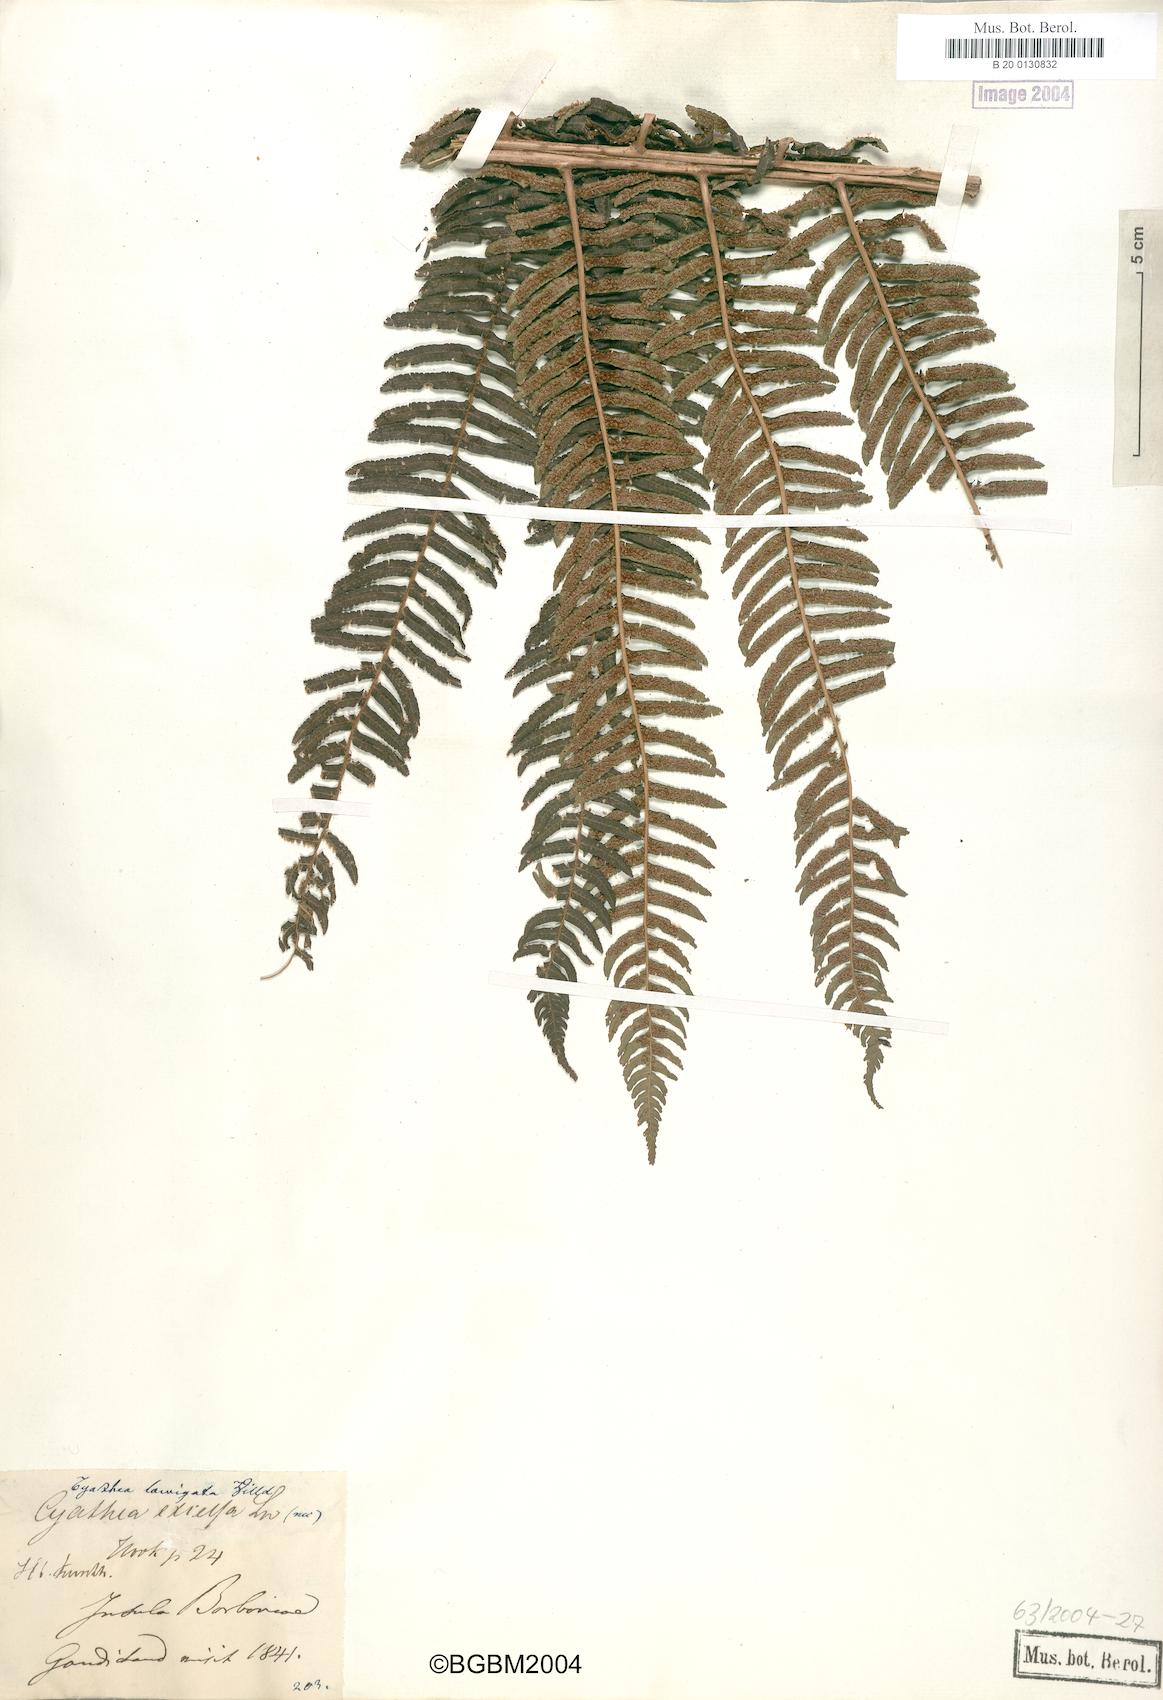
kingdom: Plantae
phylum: Tracheophyta
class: Polypodiopsida
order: Cyatheales
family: Cyatheaceae
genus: Alsophila
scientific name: Alsophila celsa
